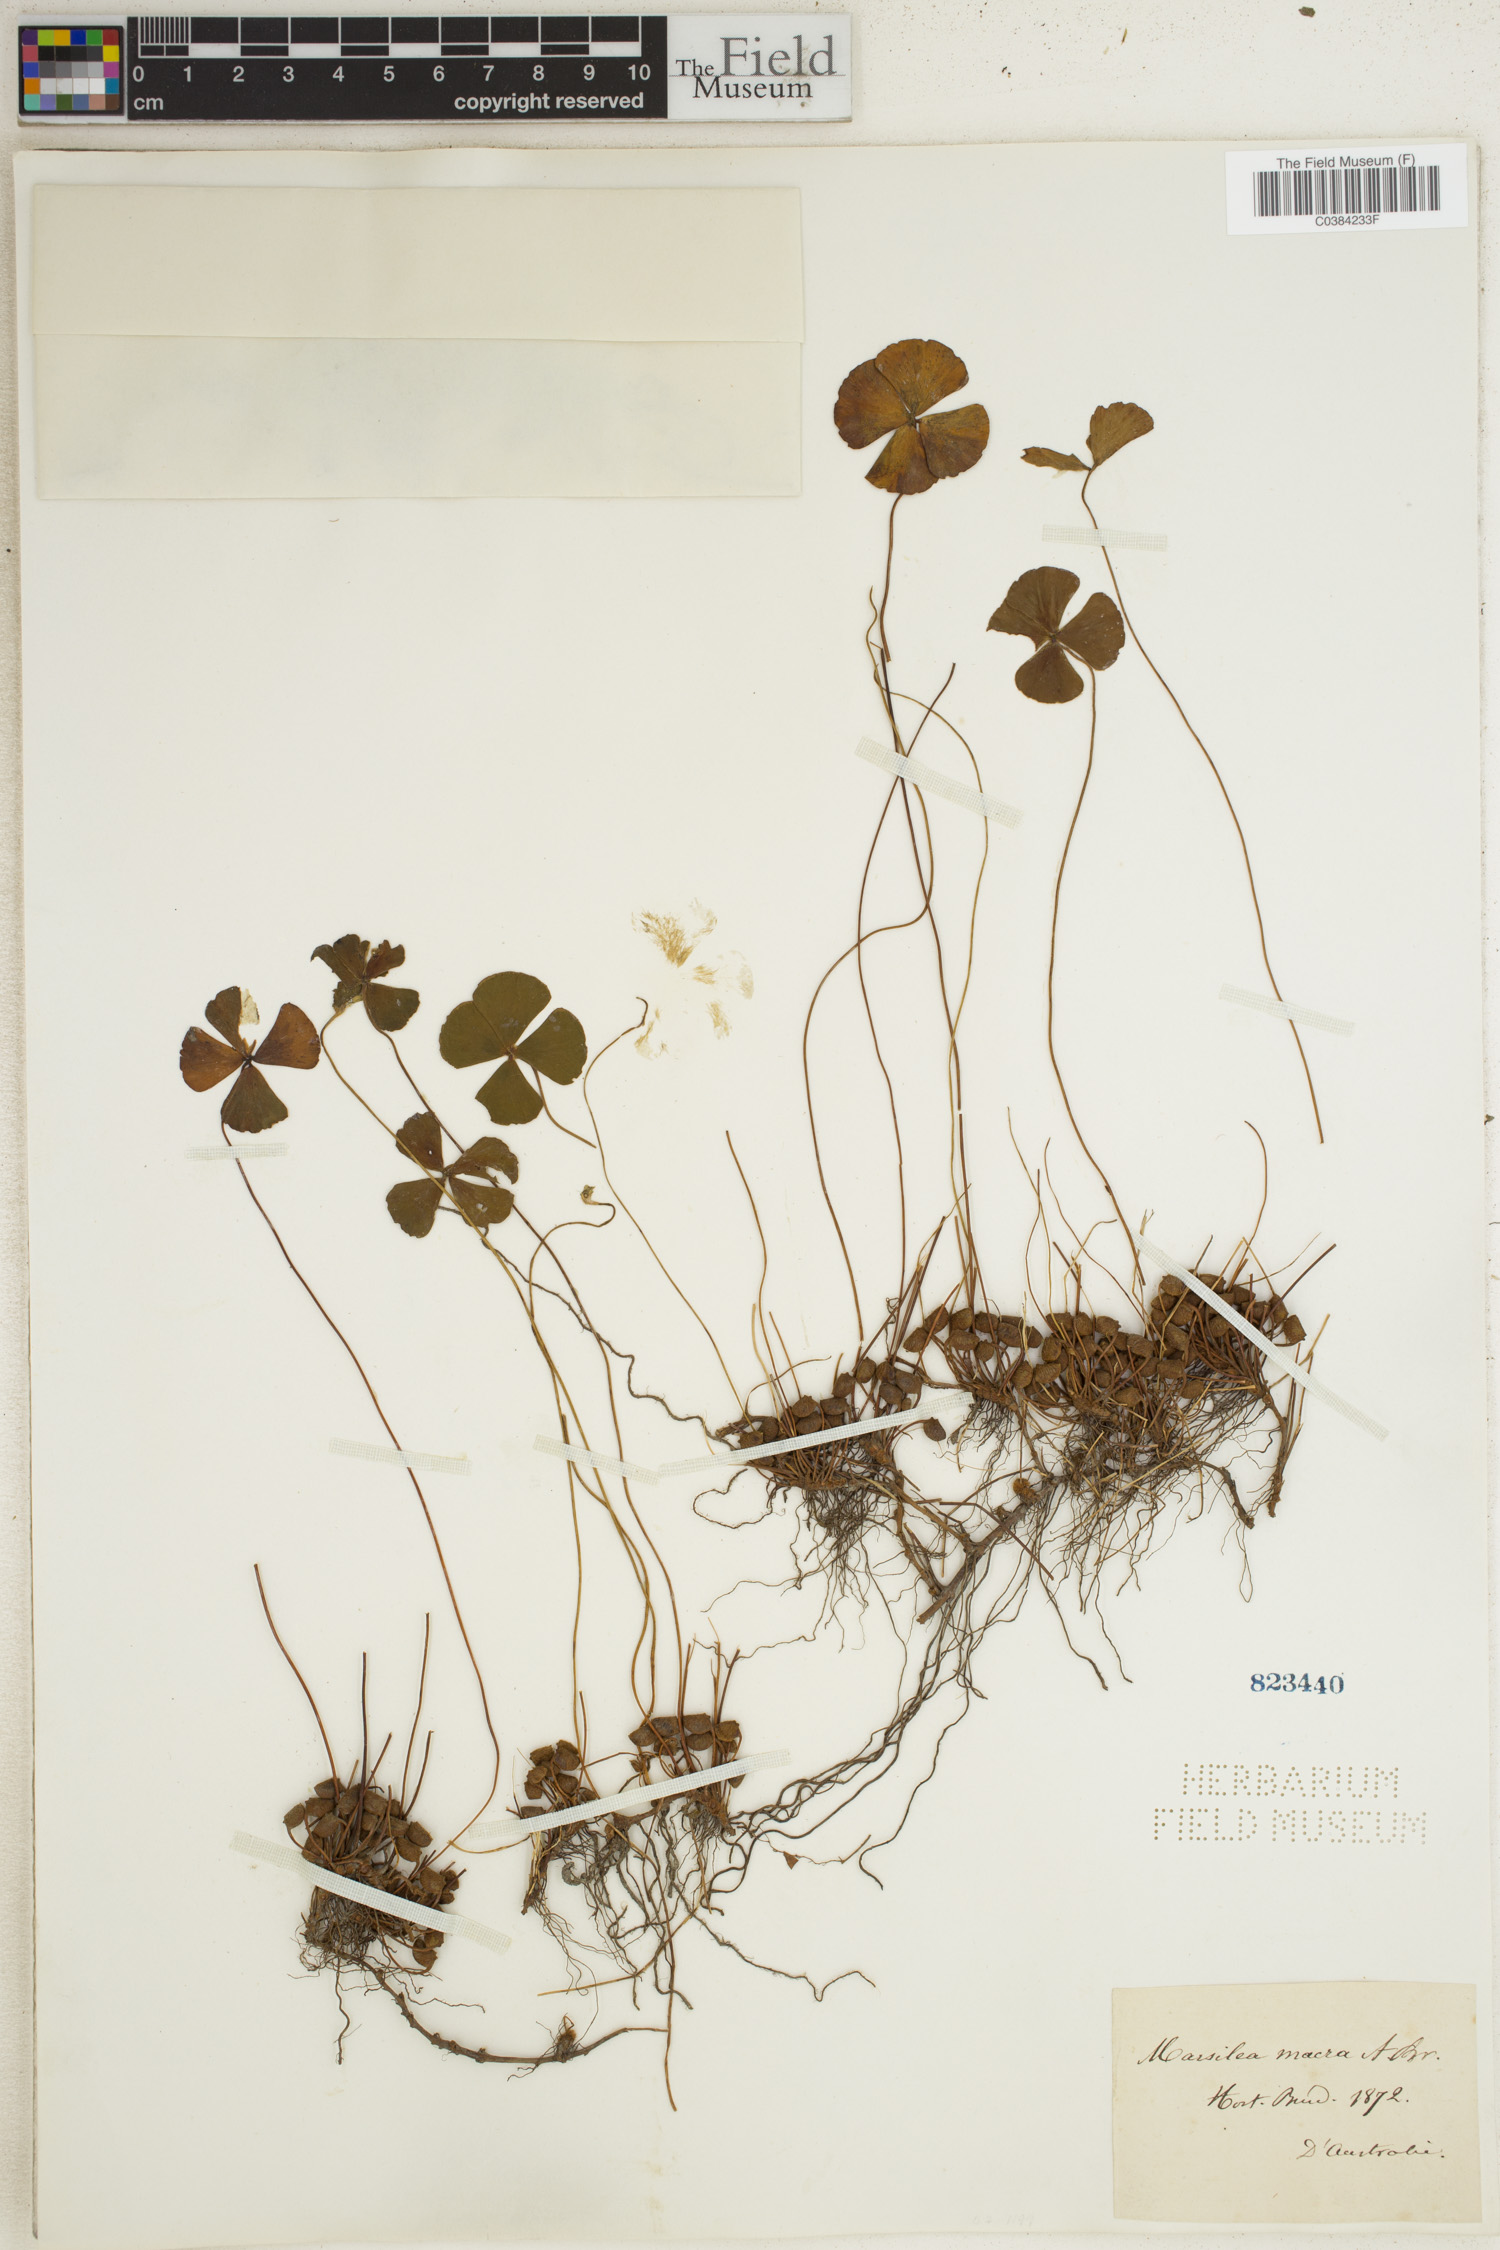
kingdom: Plantae
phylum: Tracheophyta
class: Polypodiopsida
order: Salviniales
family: Marsileaceae
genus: Marsilea
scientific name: Marsilea drummondii
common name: Nardoo
